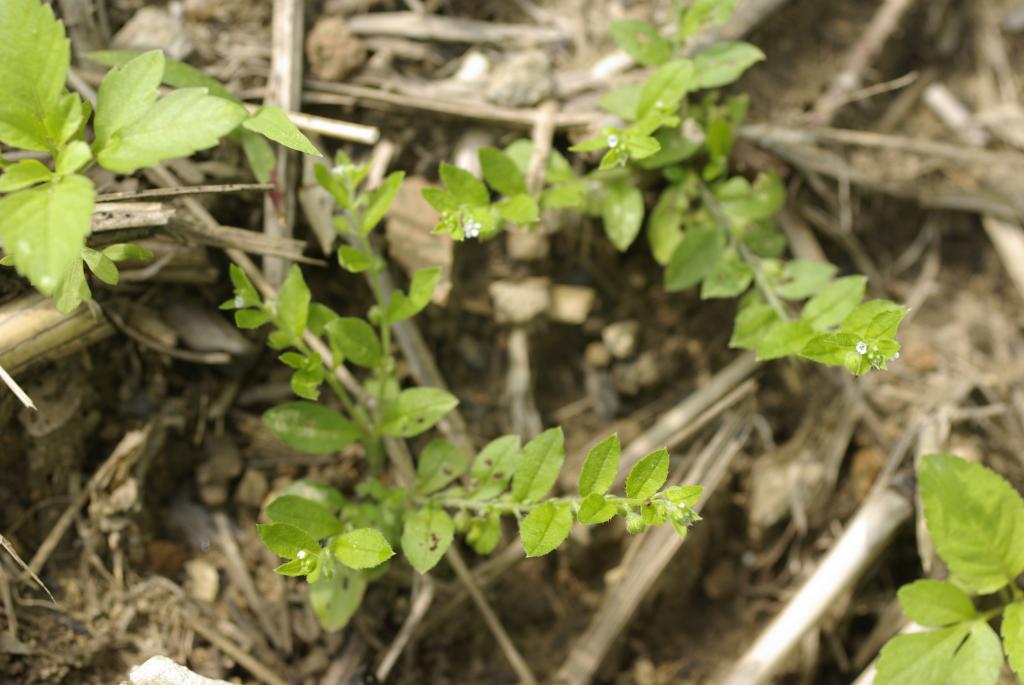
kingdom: Plantae
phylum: Tracheophyta
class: Magnoliopsida
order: Boraginales
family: Boraginaceae
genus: Bothriospermum
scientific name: Bothriospermum zeylanicum
